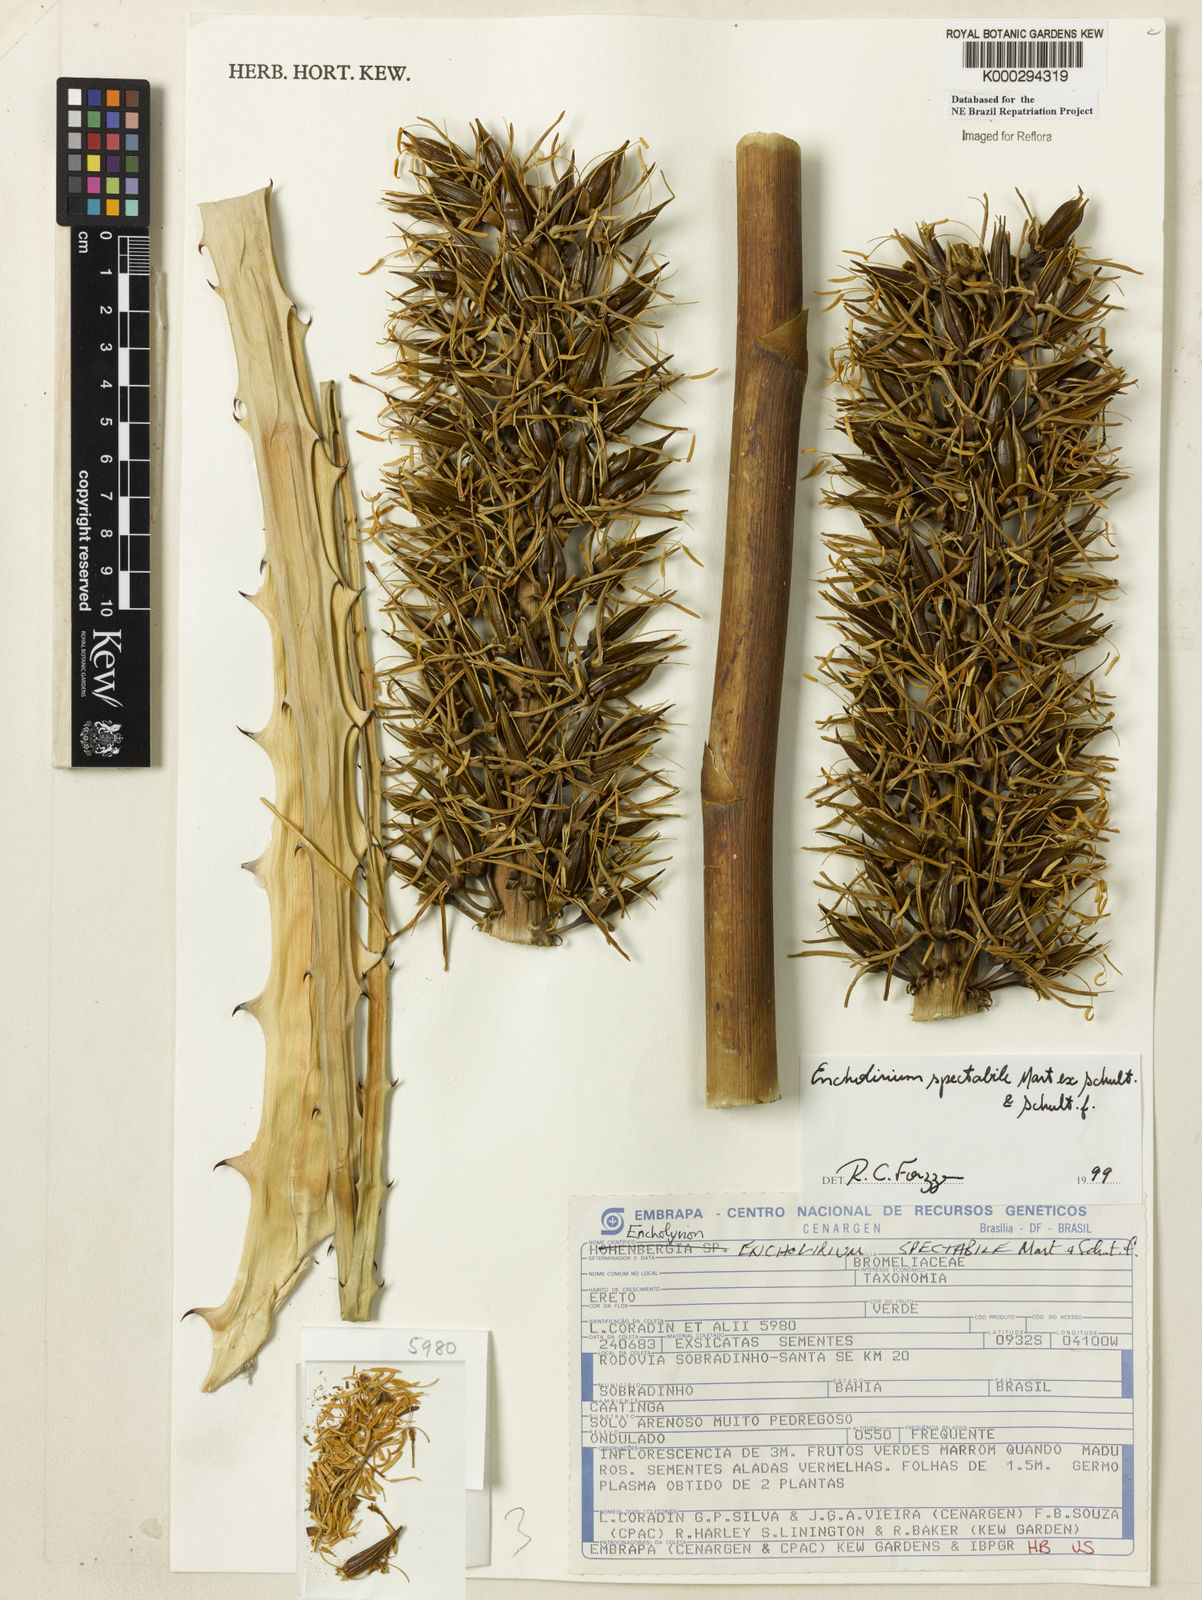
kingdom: Plantae
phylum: Tracheophyta
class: Liliopsida
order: Poales
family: Bromeliaceae
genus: Encholirium
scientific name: Encholirium spectabile
